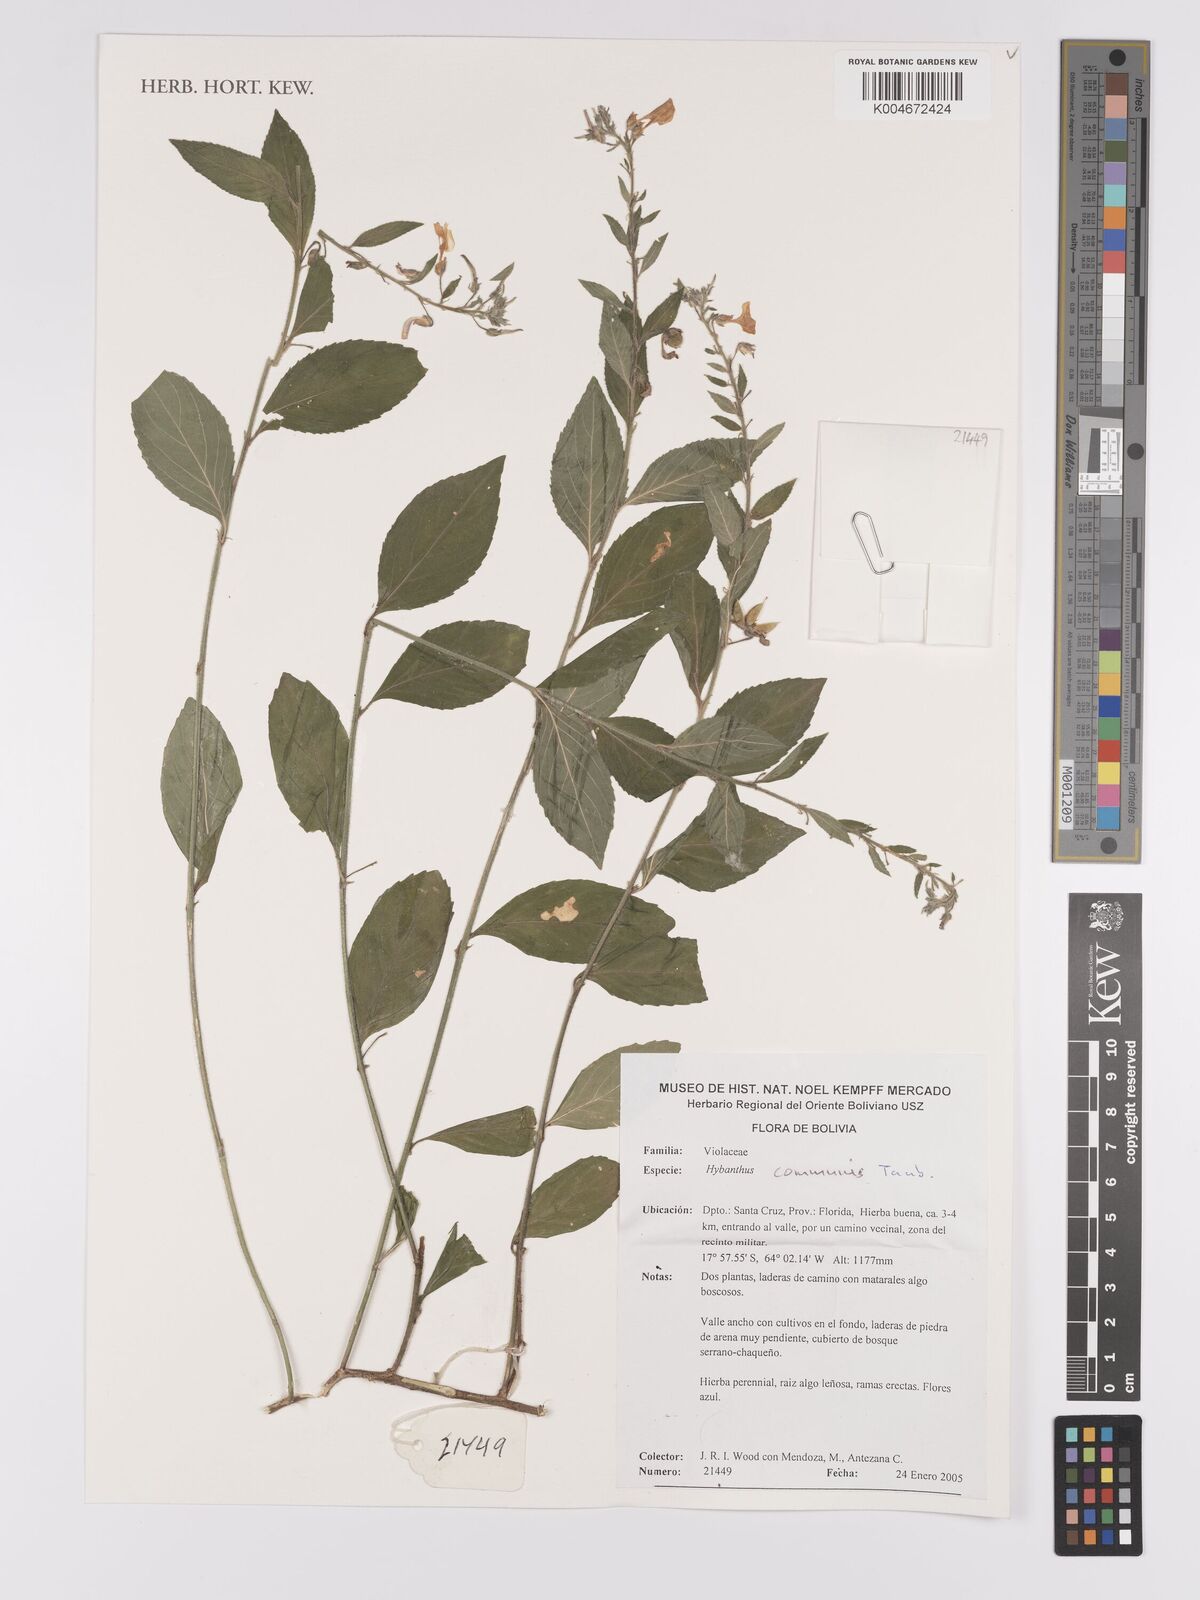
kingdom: Plantae
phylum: Tracheophyta
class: Magnoliopsida
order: Malpighiales
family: Violaceae
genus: Pombalia
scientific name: Pombalia communis
